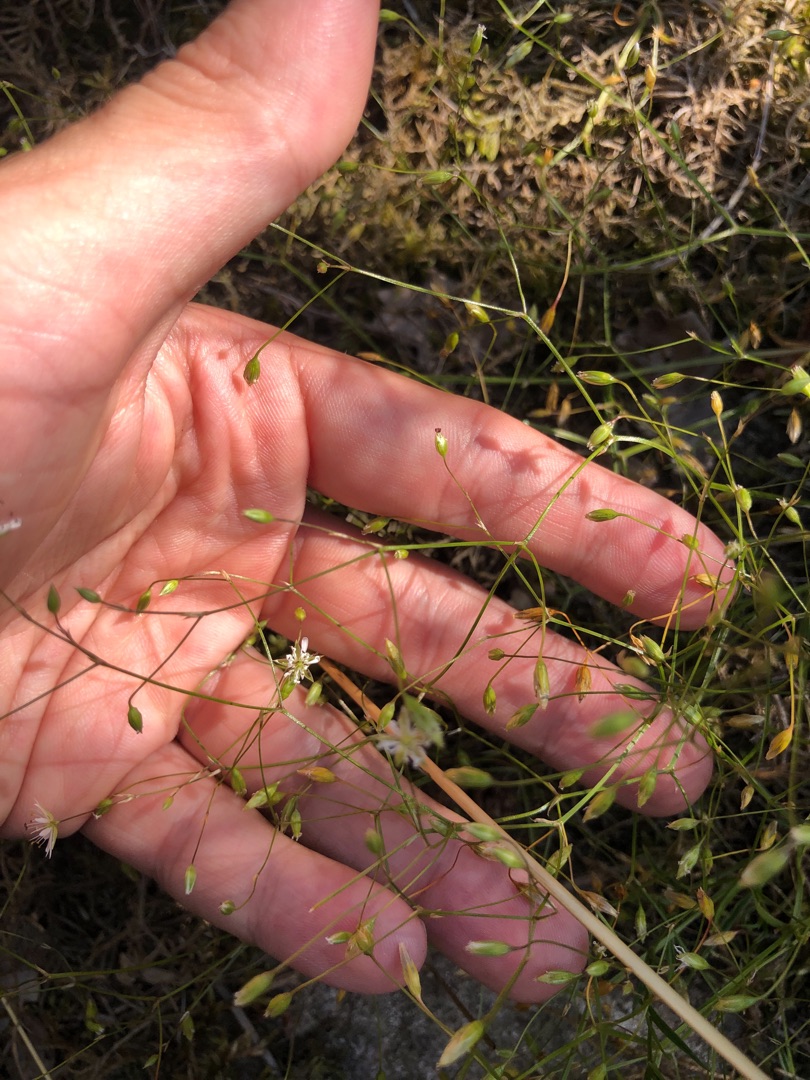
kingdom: Plantae
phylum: Tracheophyta
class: Magnoliopsida
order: Caryophyllales
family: Caryophyllaceae
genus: Stellaria
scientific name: Stellaria graminea
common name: Græsbladet fladstjerne
